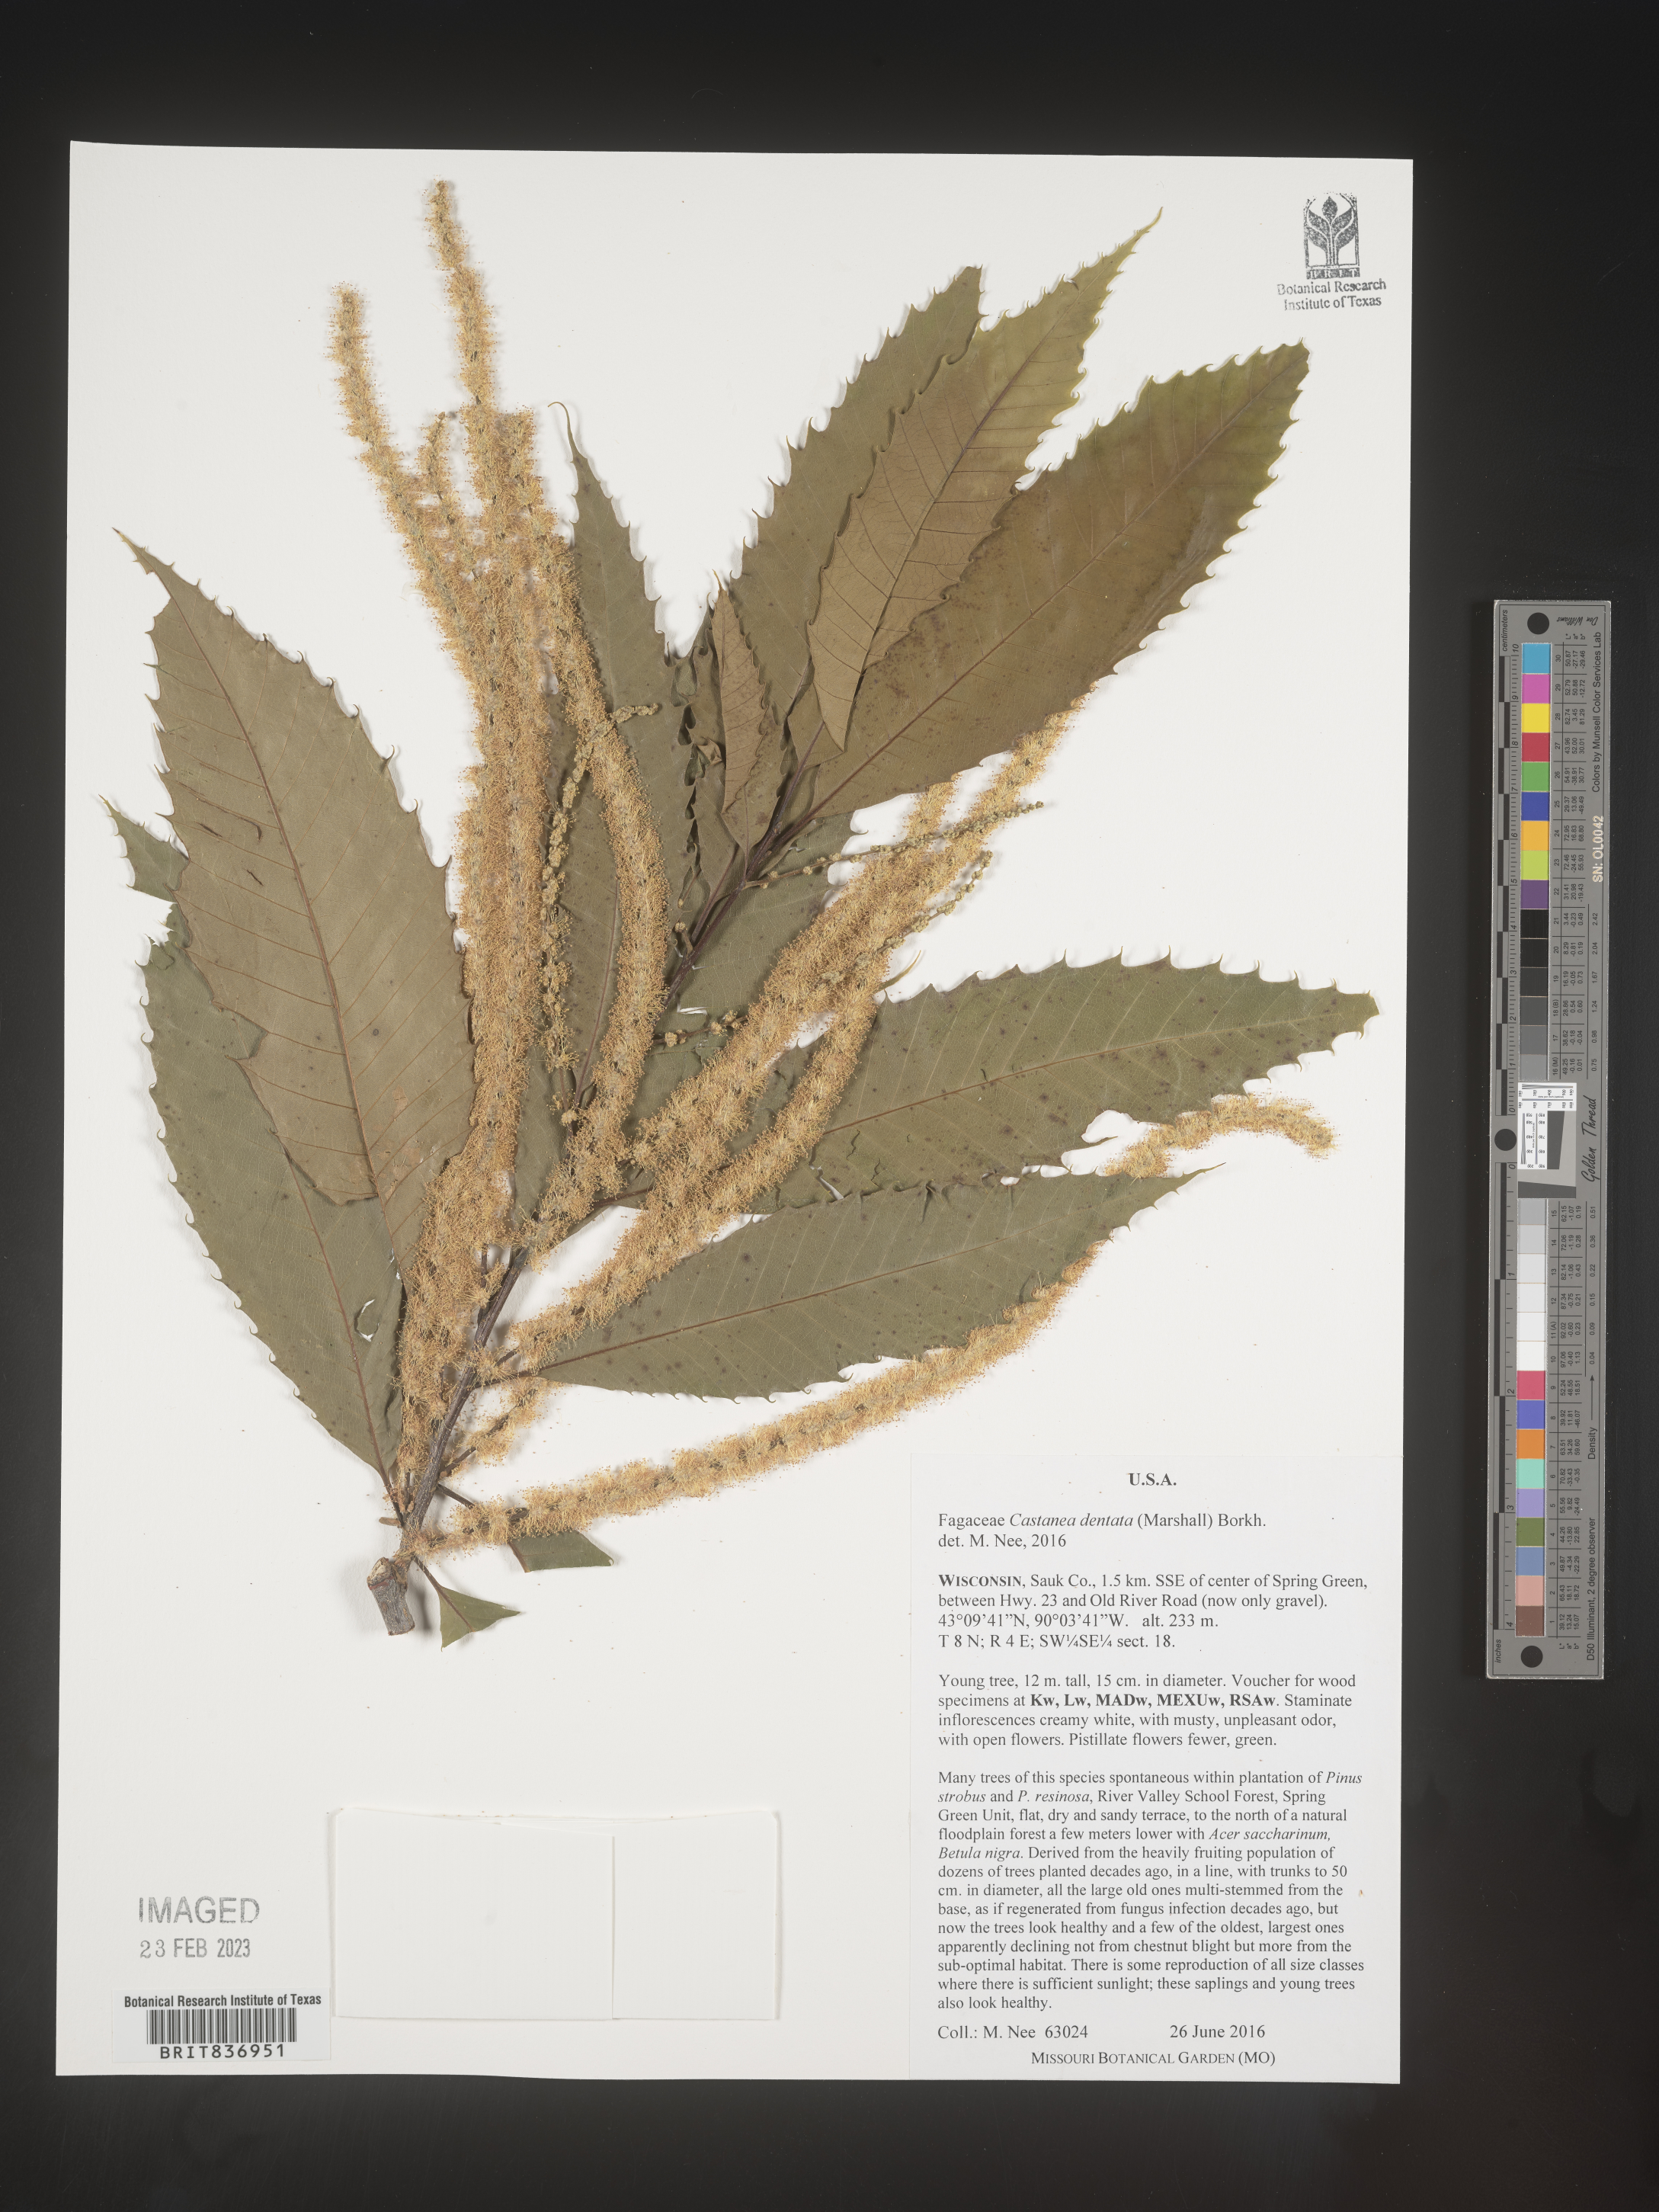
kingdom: Plantae
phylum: Tracheophyta
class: Magnoliopsida
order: Fagales
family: Fagaceae
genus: Castanea
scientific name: Castanea dentata
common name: American chestnut
